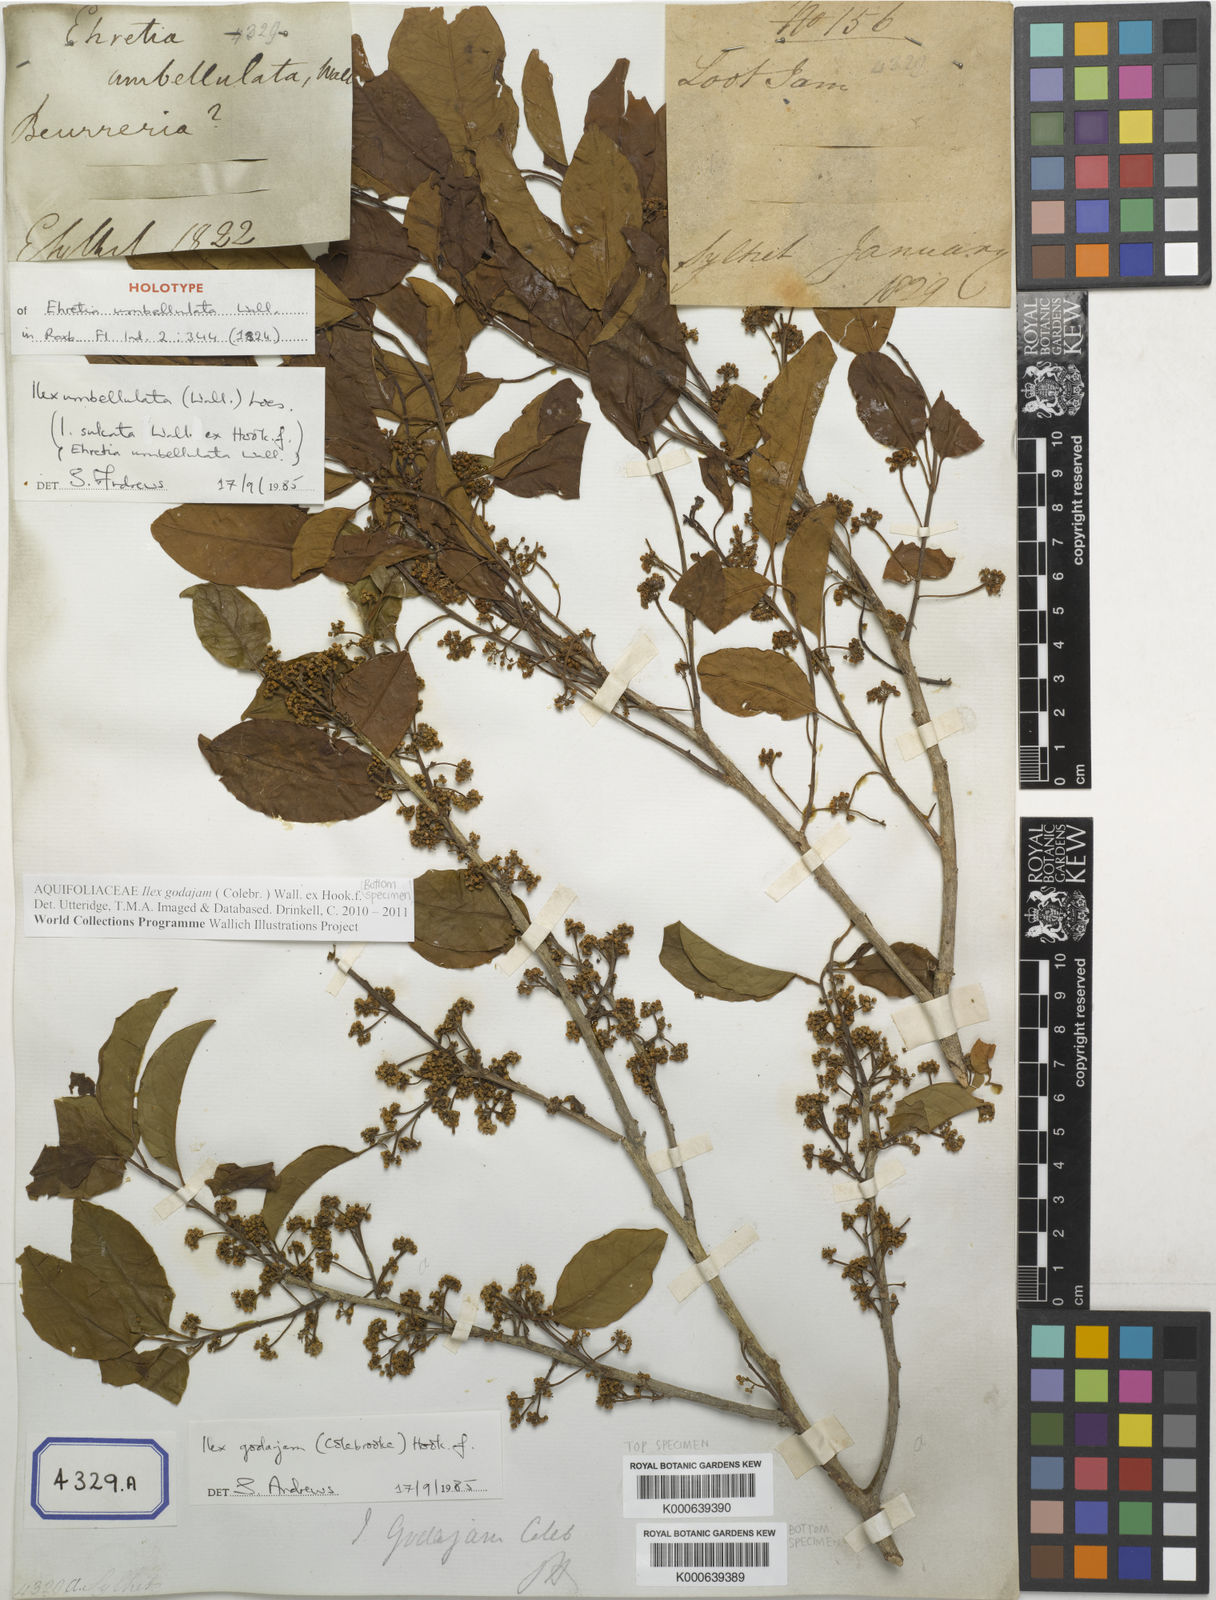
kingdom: Plantae
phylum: Tracheophyta
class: Magnoliopsida
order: Aquifoliales
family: Aquifoliaceae
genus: Ilex
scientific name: Ilex umbellulata
